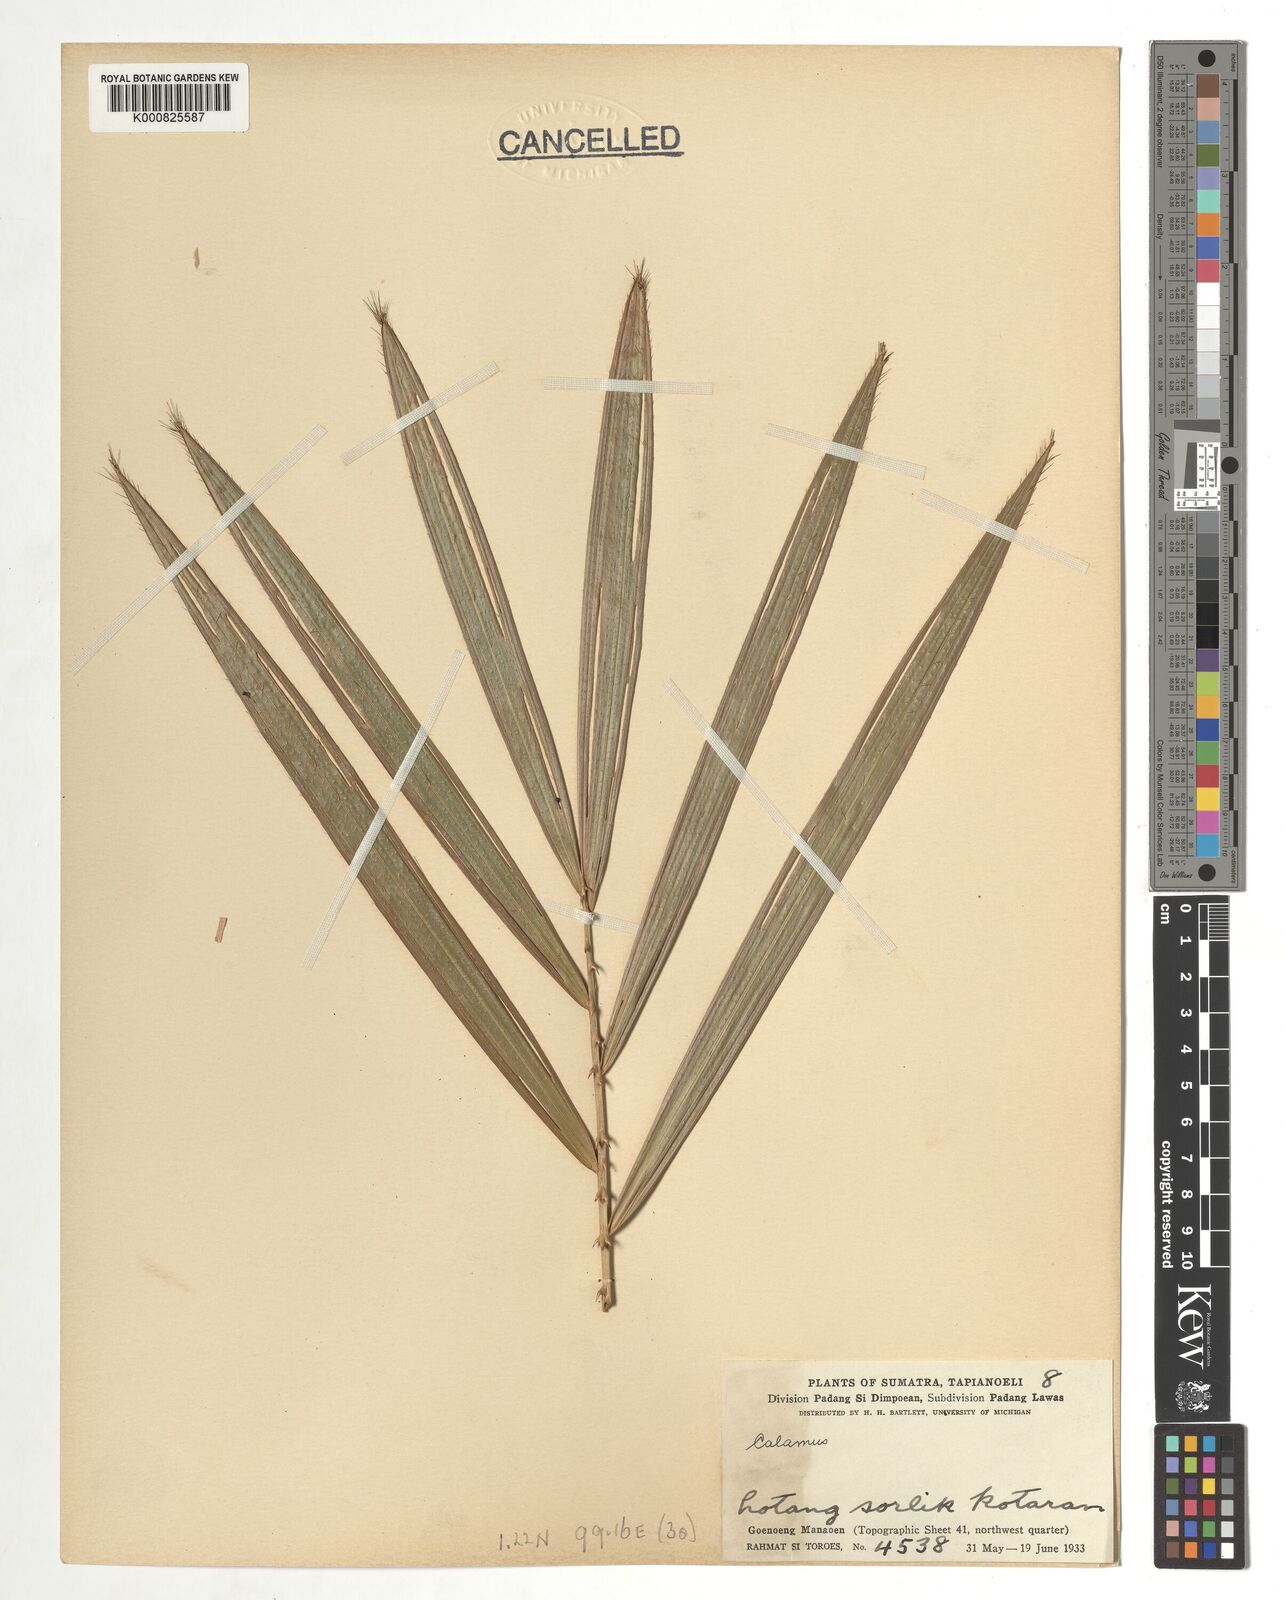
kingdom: Plantae
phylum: Tracheophyta
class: Liliopsida
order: Arecales
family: Arecaceae
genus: Calamus
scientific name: Calamus
